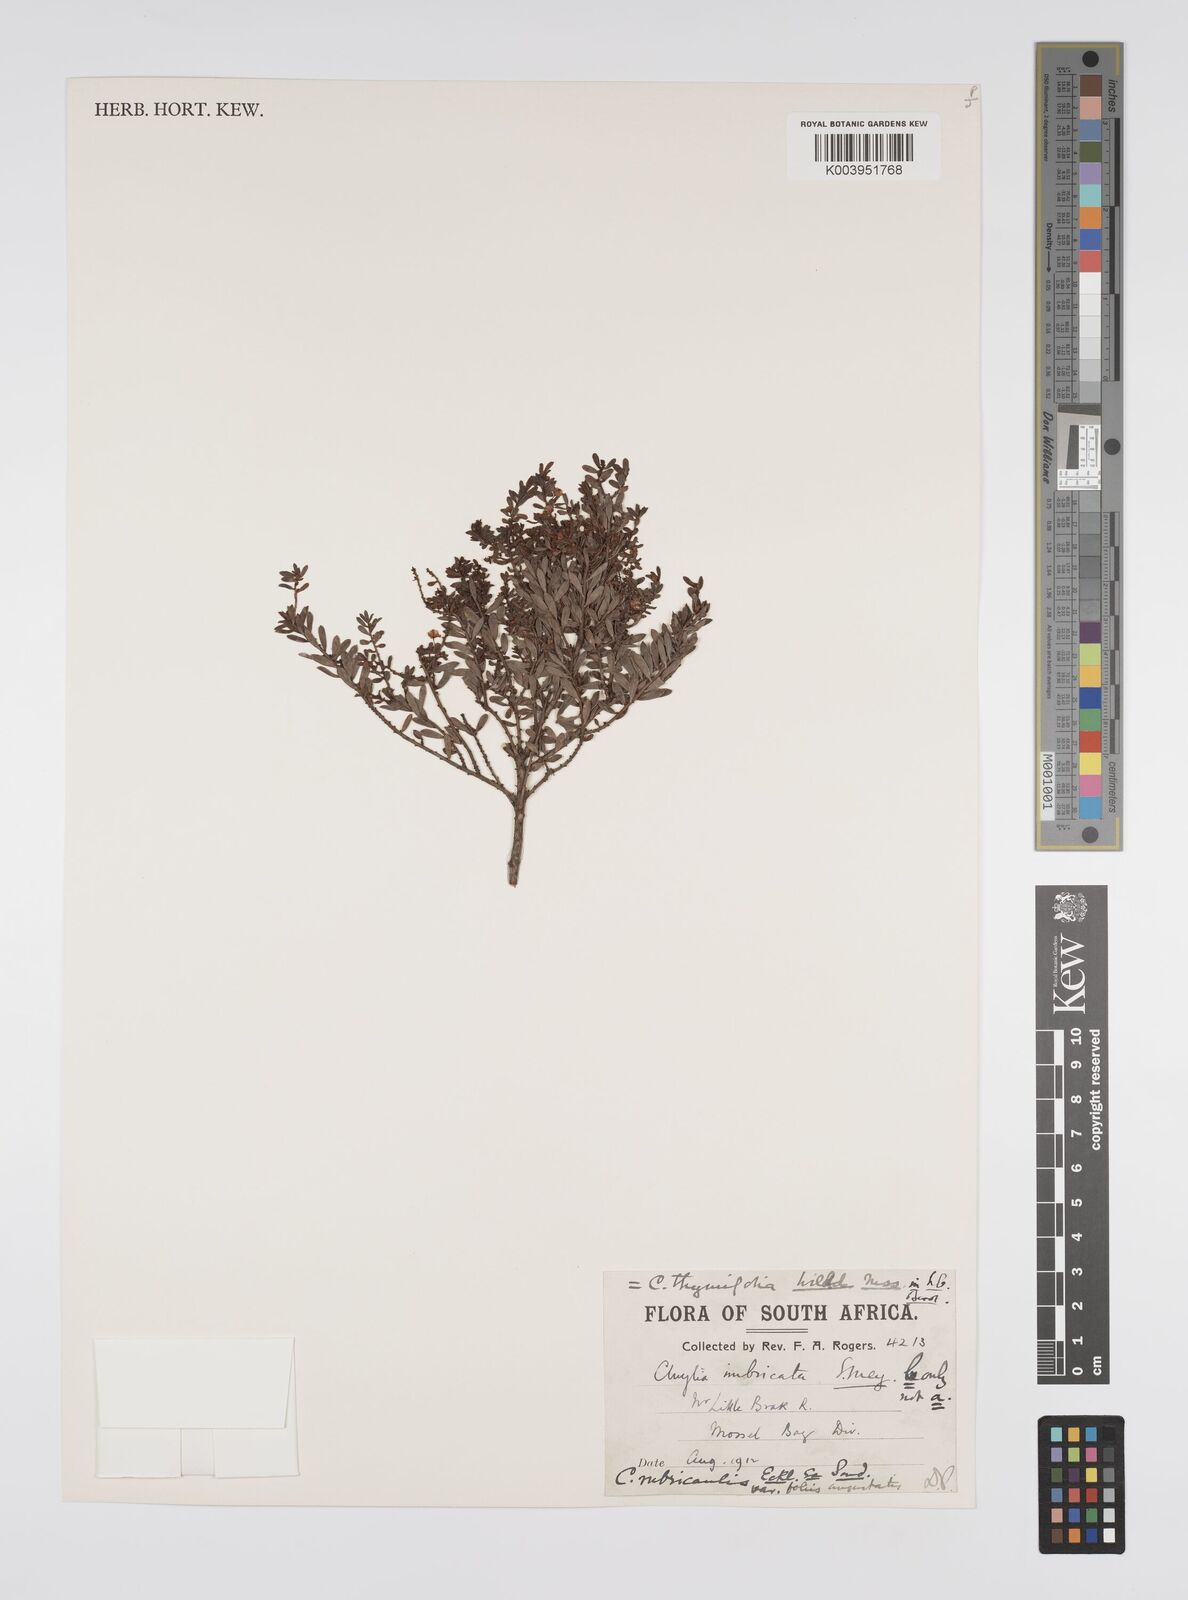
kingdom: Plantae
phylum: Tracheophyta
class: Magnoliopsida
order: Malpighiales
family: Peraceae
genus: Clutia
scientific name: Clutia imbricata
